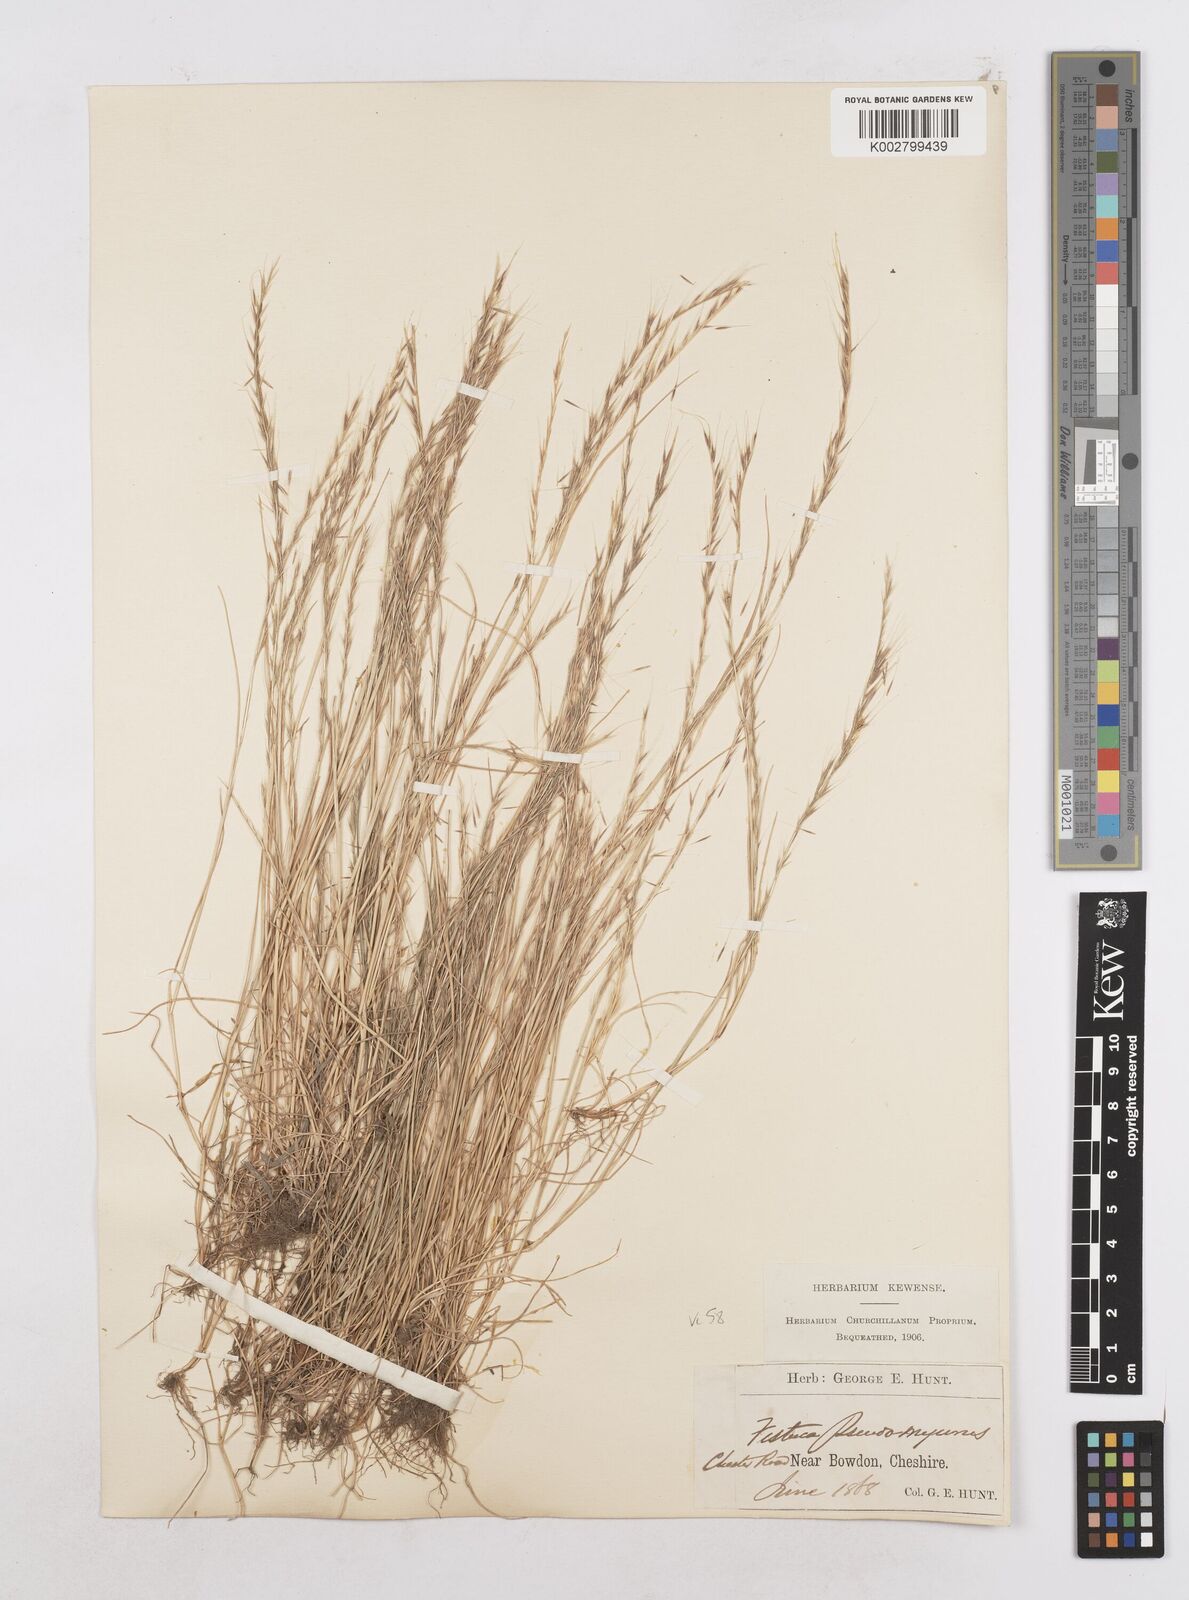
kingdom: Plantae
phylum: Tracheophyta
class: Liliopsida
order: Poales
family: Poaceae
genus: Festuca
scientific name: Festuca myuros
